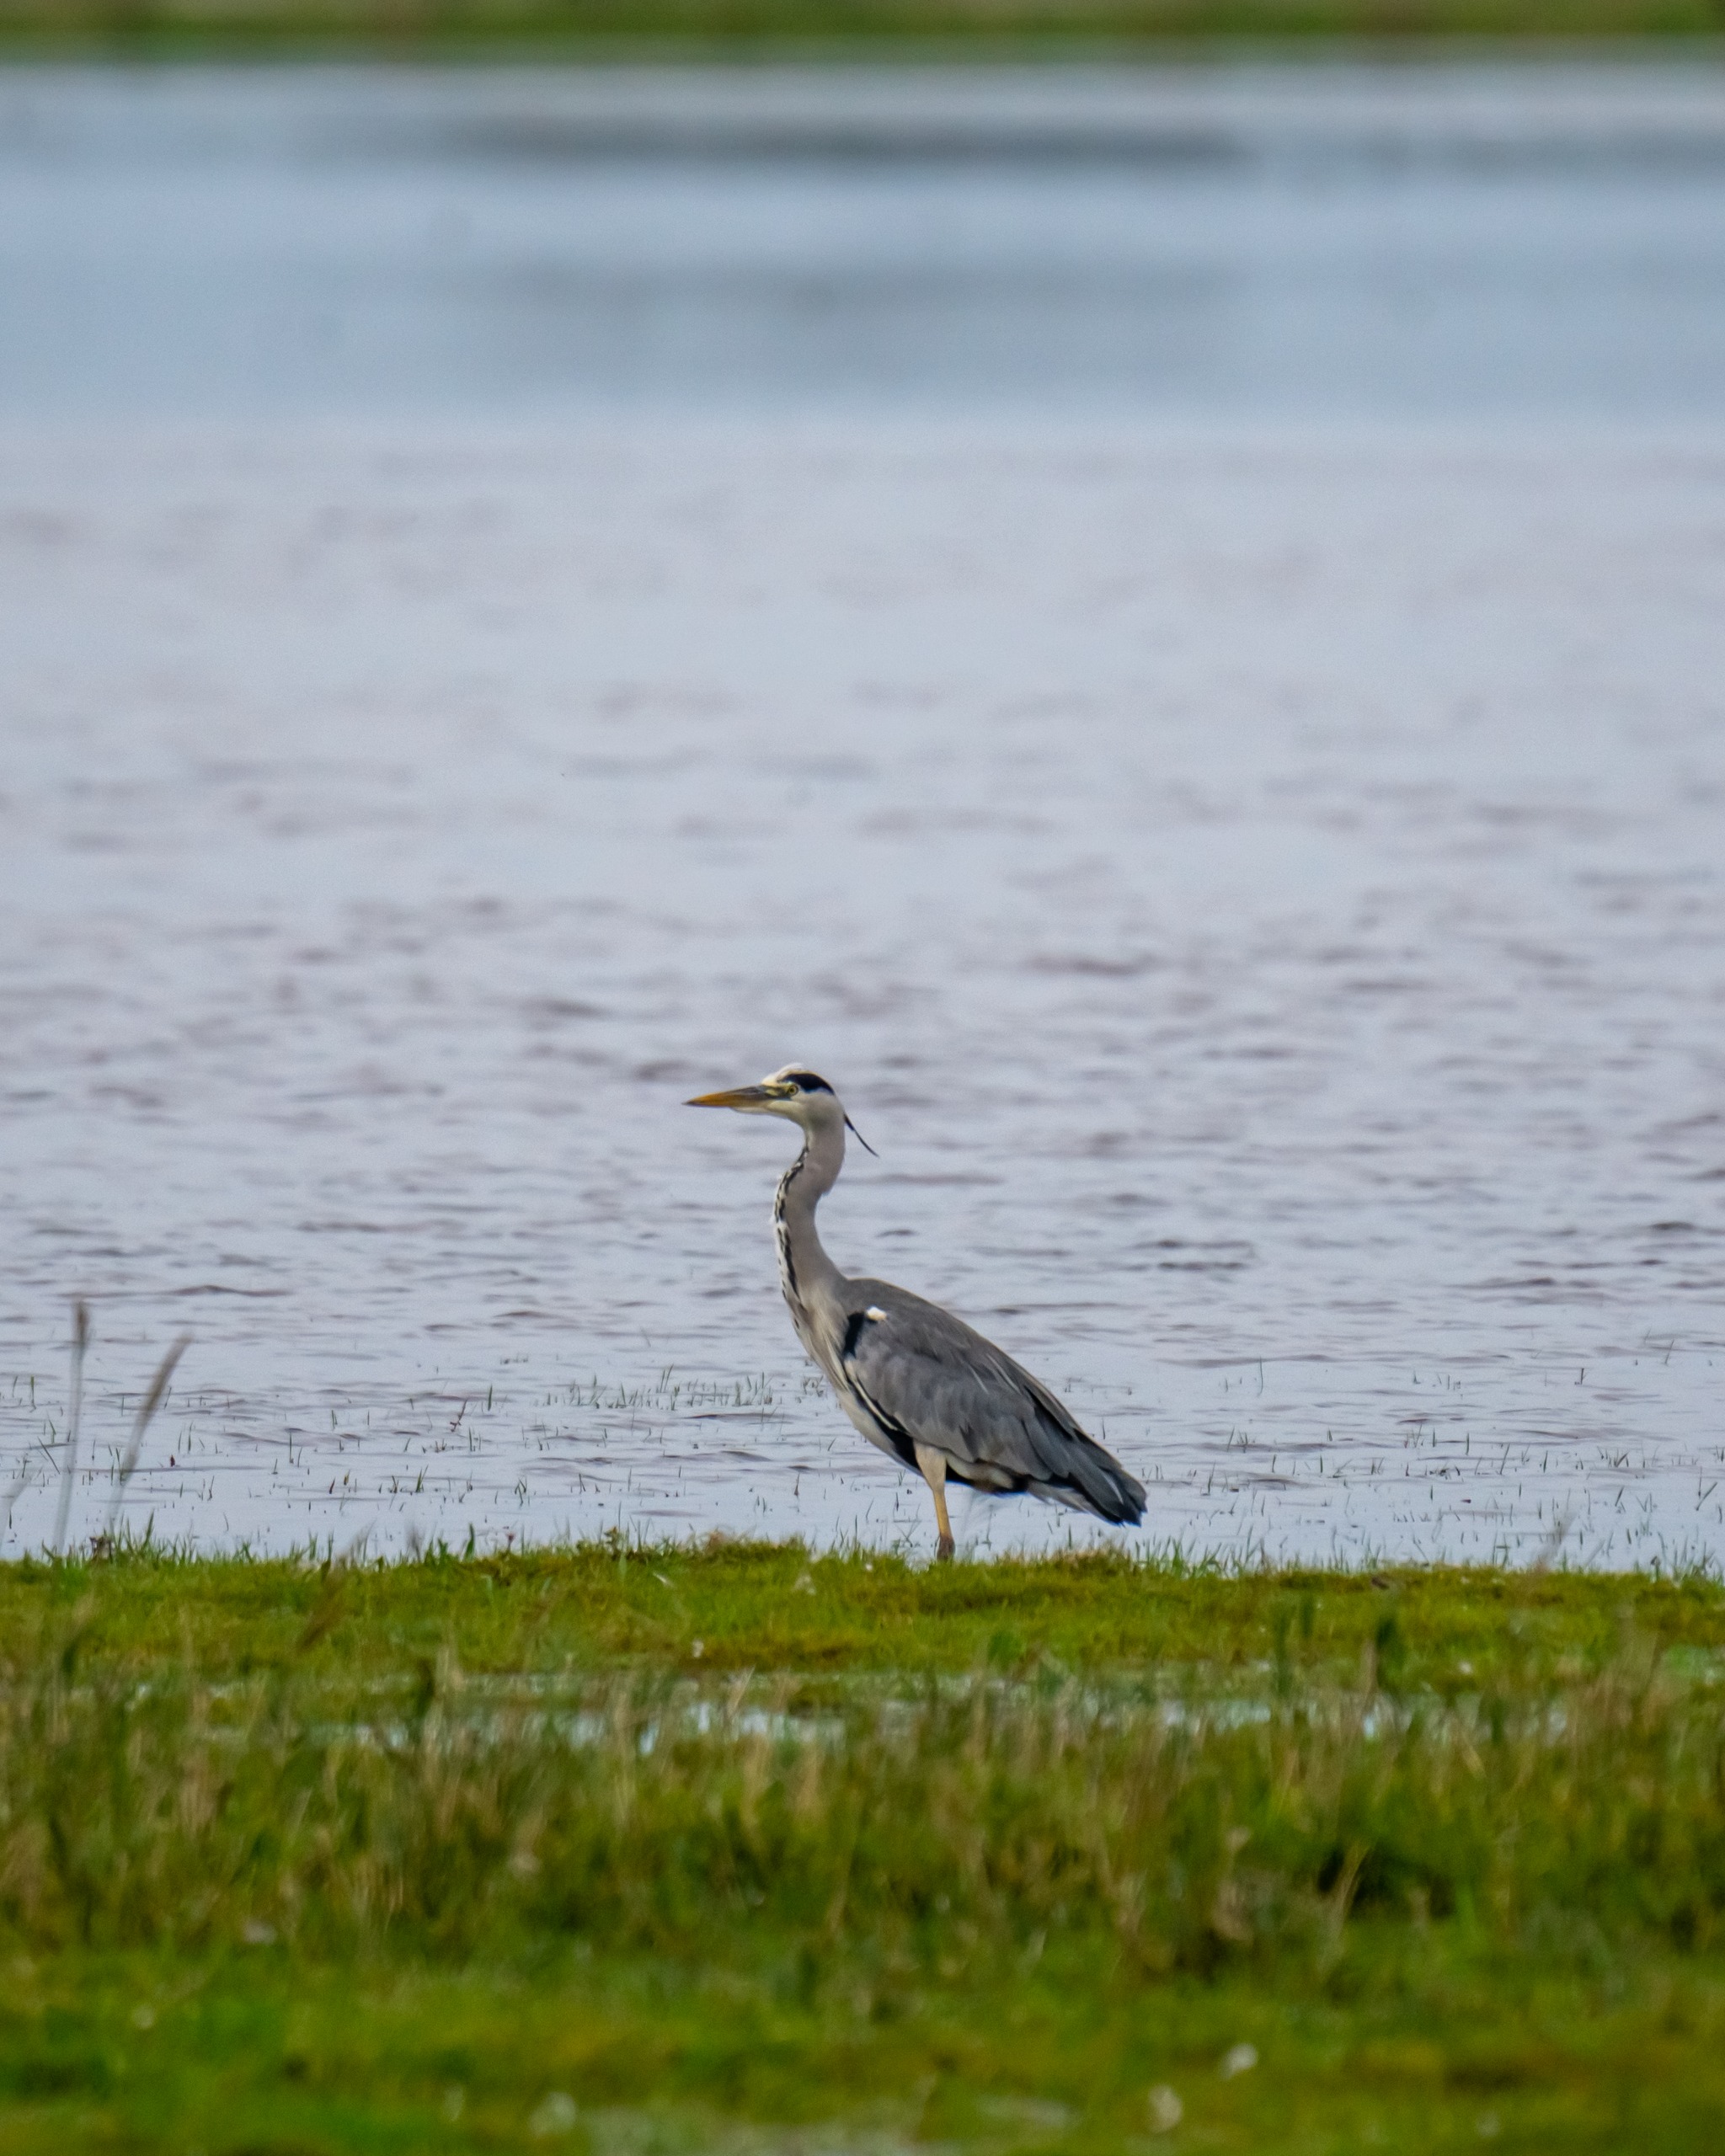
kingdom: Animalia
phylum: Chordata
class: Aves
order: Pelecaniformes
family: Ardeidae
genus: Ardea
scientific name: Ardea cinerea
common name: Fiskehejre
